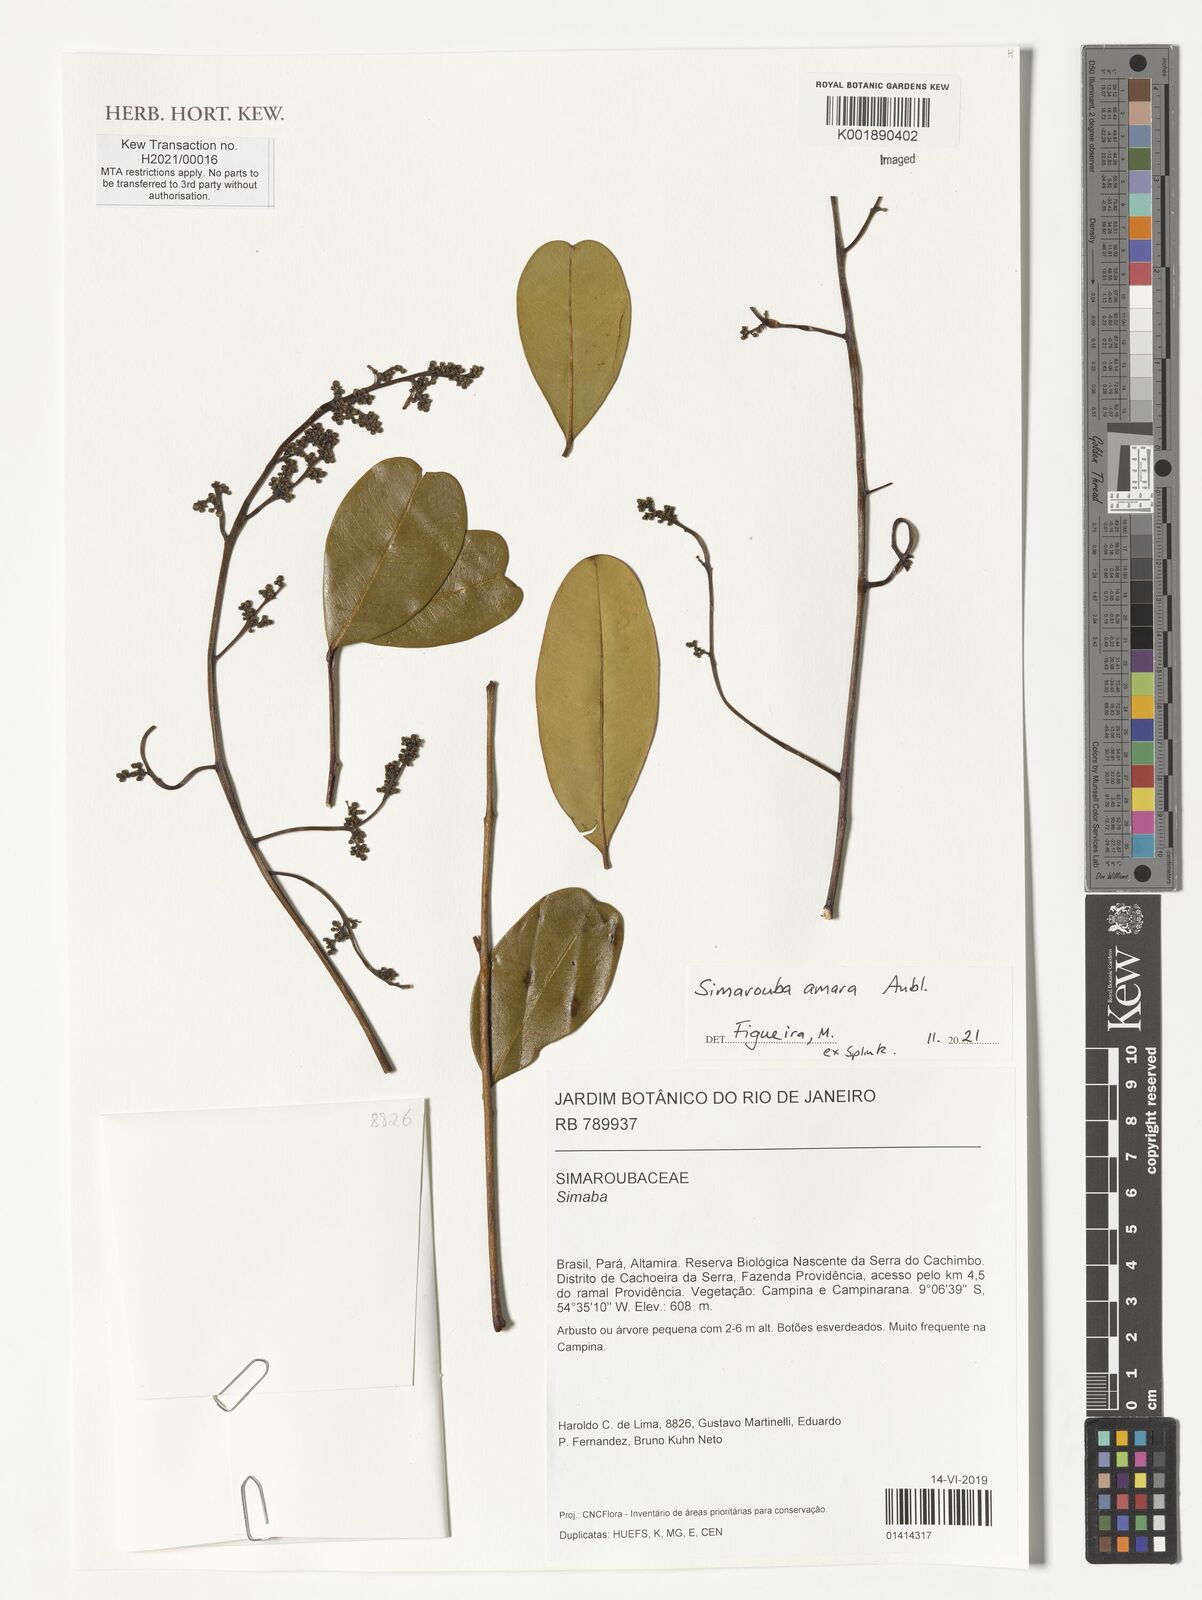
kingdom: Plantae
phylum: Tracheophyta
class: Magnoliopsida
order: Sapindales
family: Simaroubaceae
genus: Simarouba
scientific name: Simarouba amara
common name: Bitterwood
